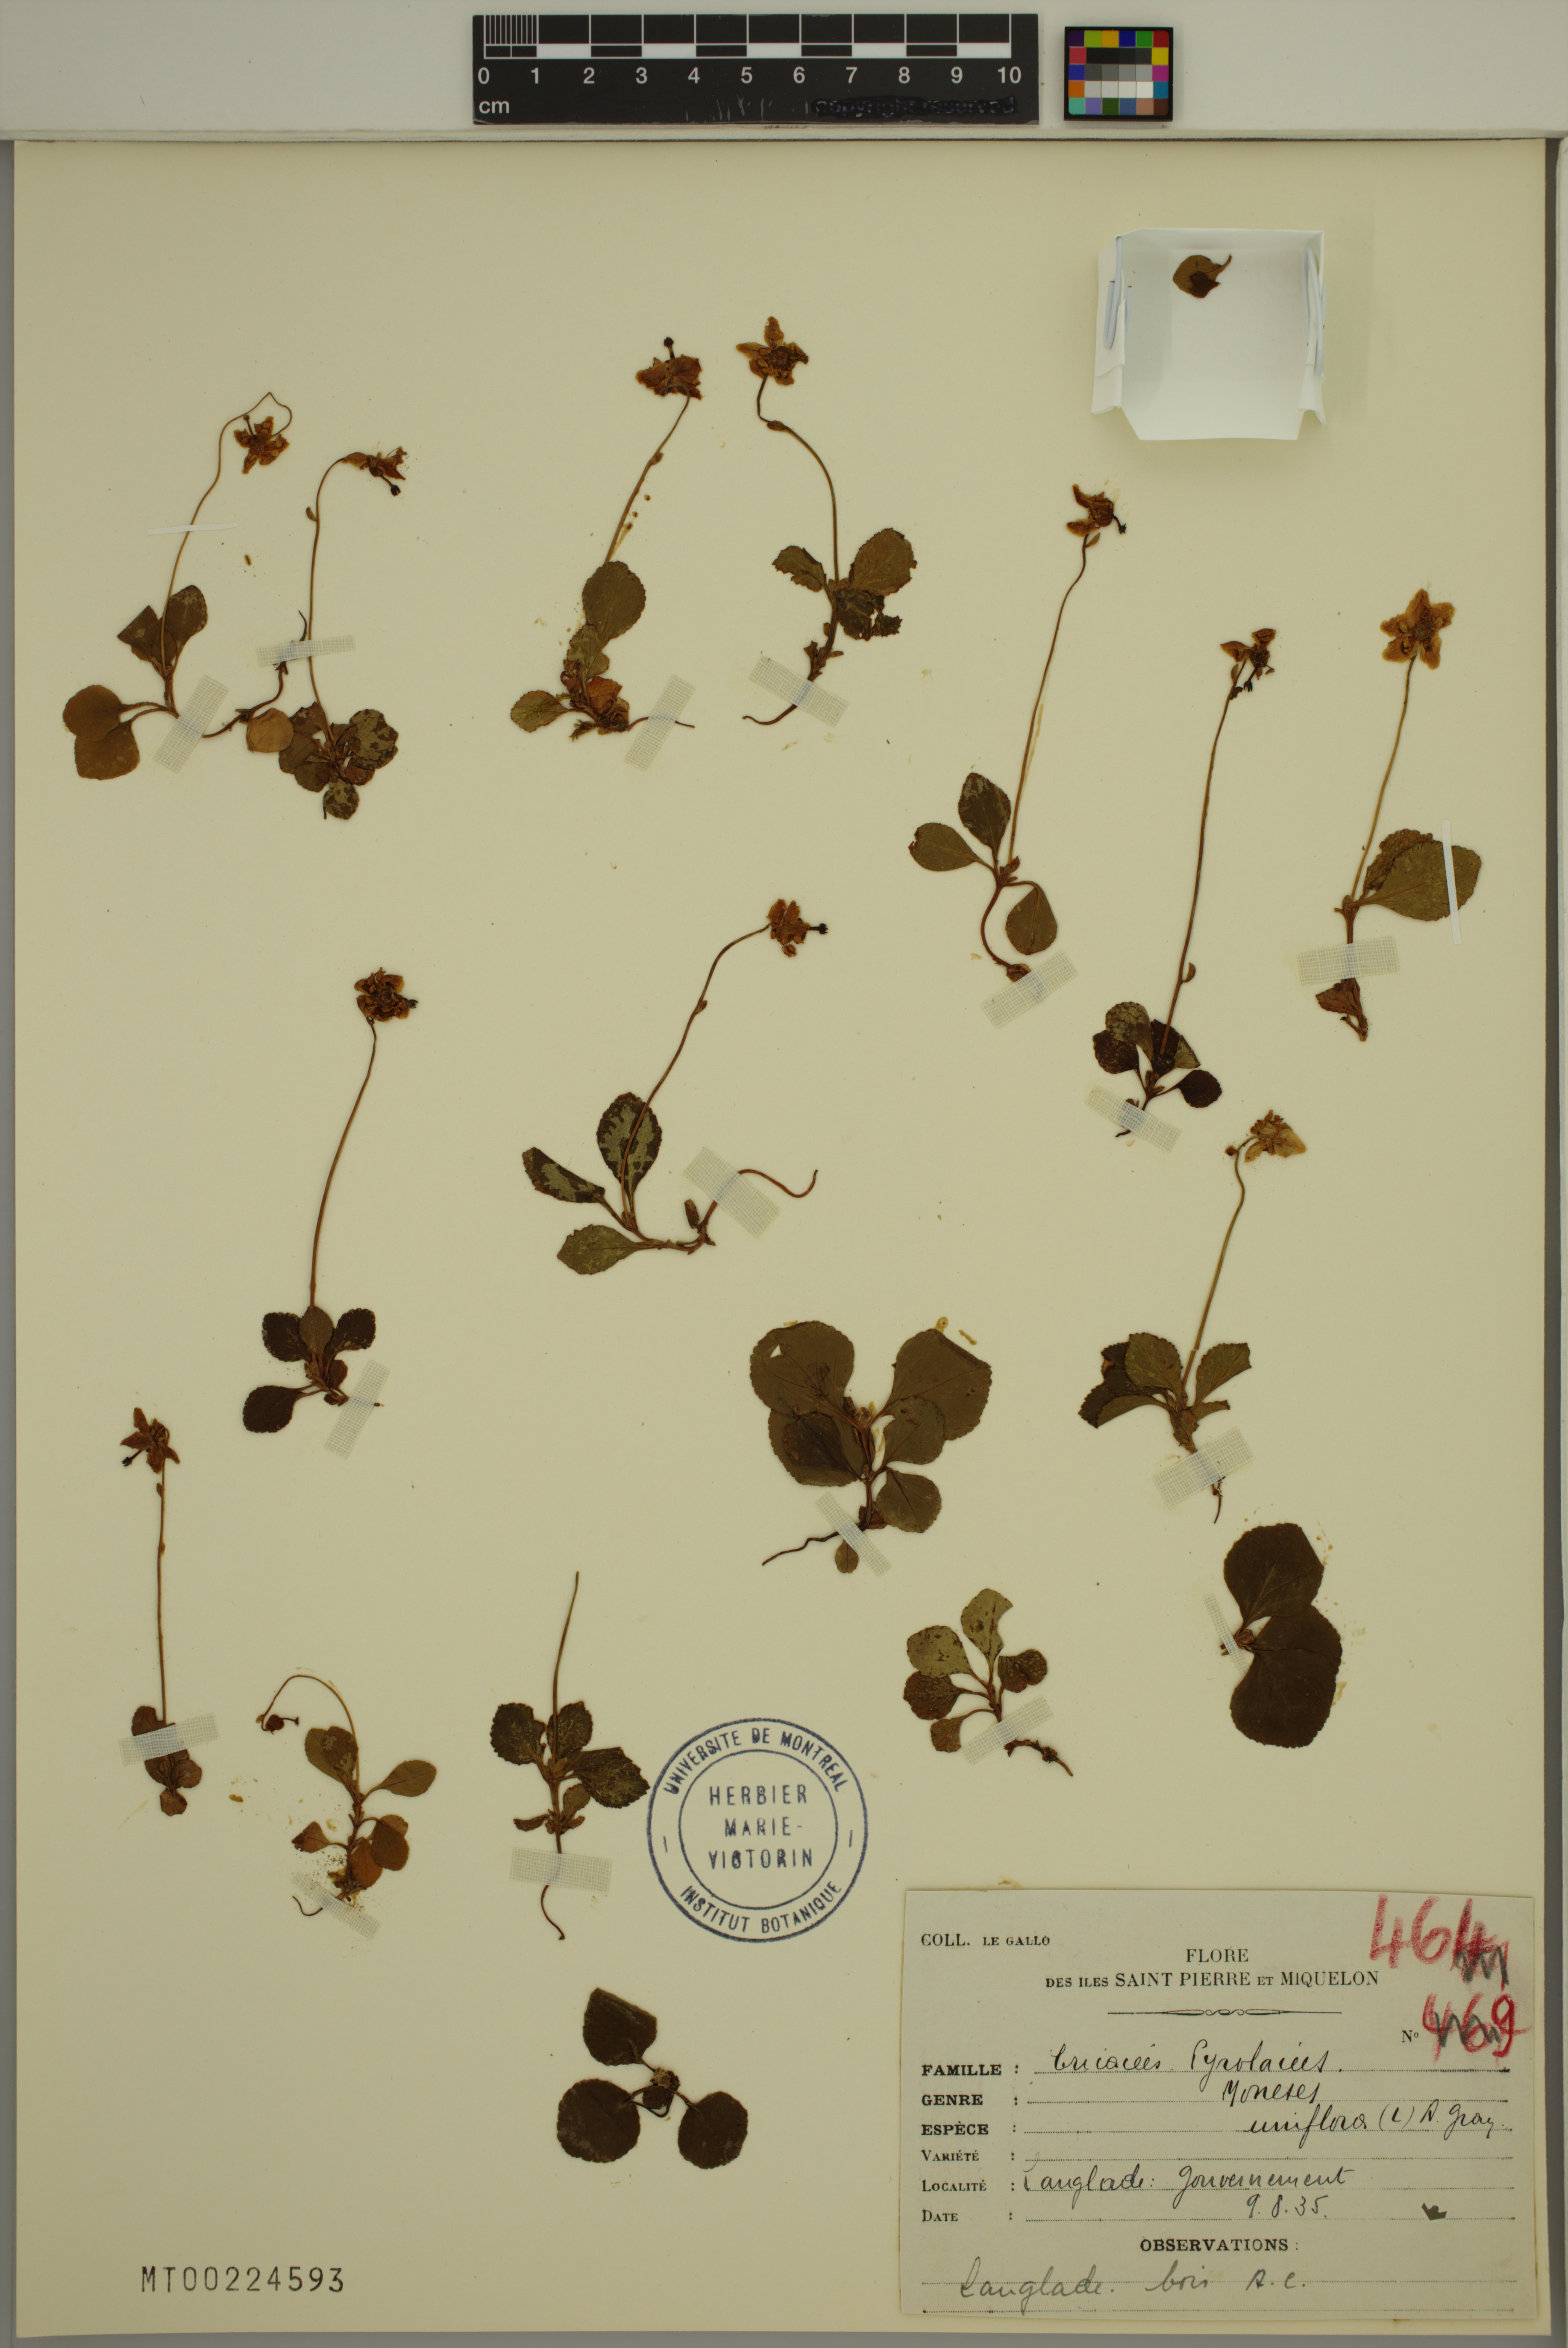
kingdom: Plantae
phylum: Tracheophyta
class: Magnoliopsida
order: Ericales
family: Ericaceae
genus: Moneses
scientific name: Moneses uniflora
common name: One-flowered wintergreen
